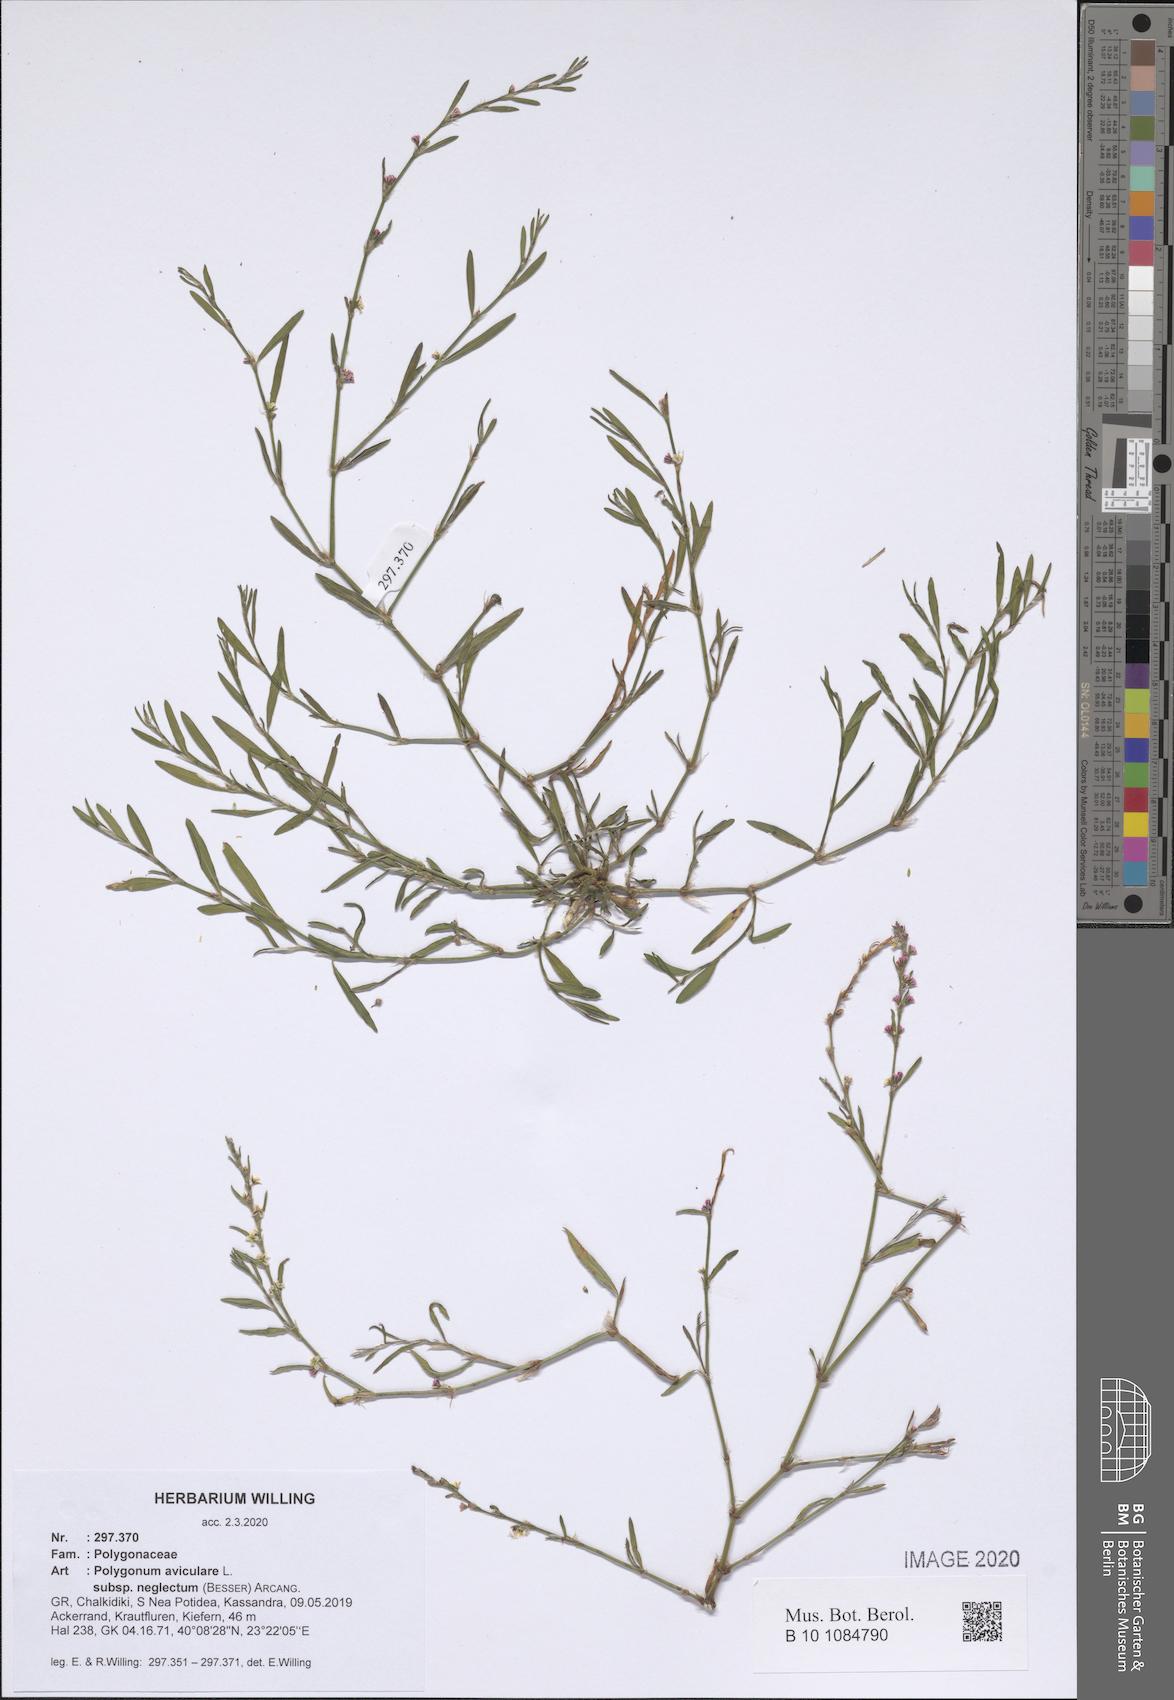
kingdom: Plantae
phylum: Tracheophyta
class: Magnoliopsida
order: Caryophyllales
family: Polygonaceae
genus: Polygonum
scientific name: Polygonum aviculare
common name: Prostrate knotweed
